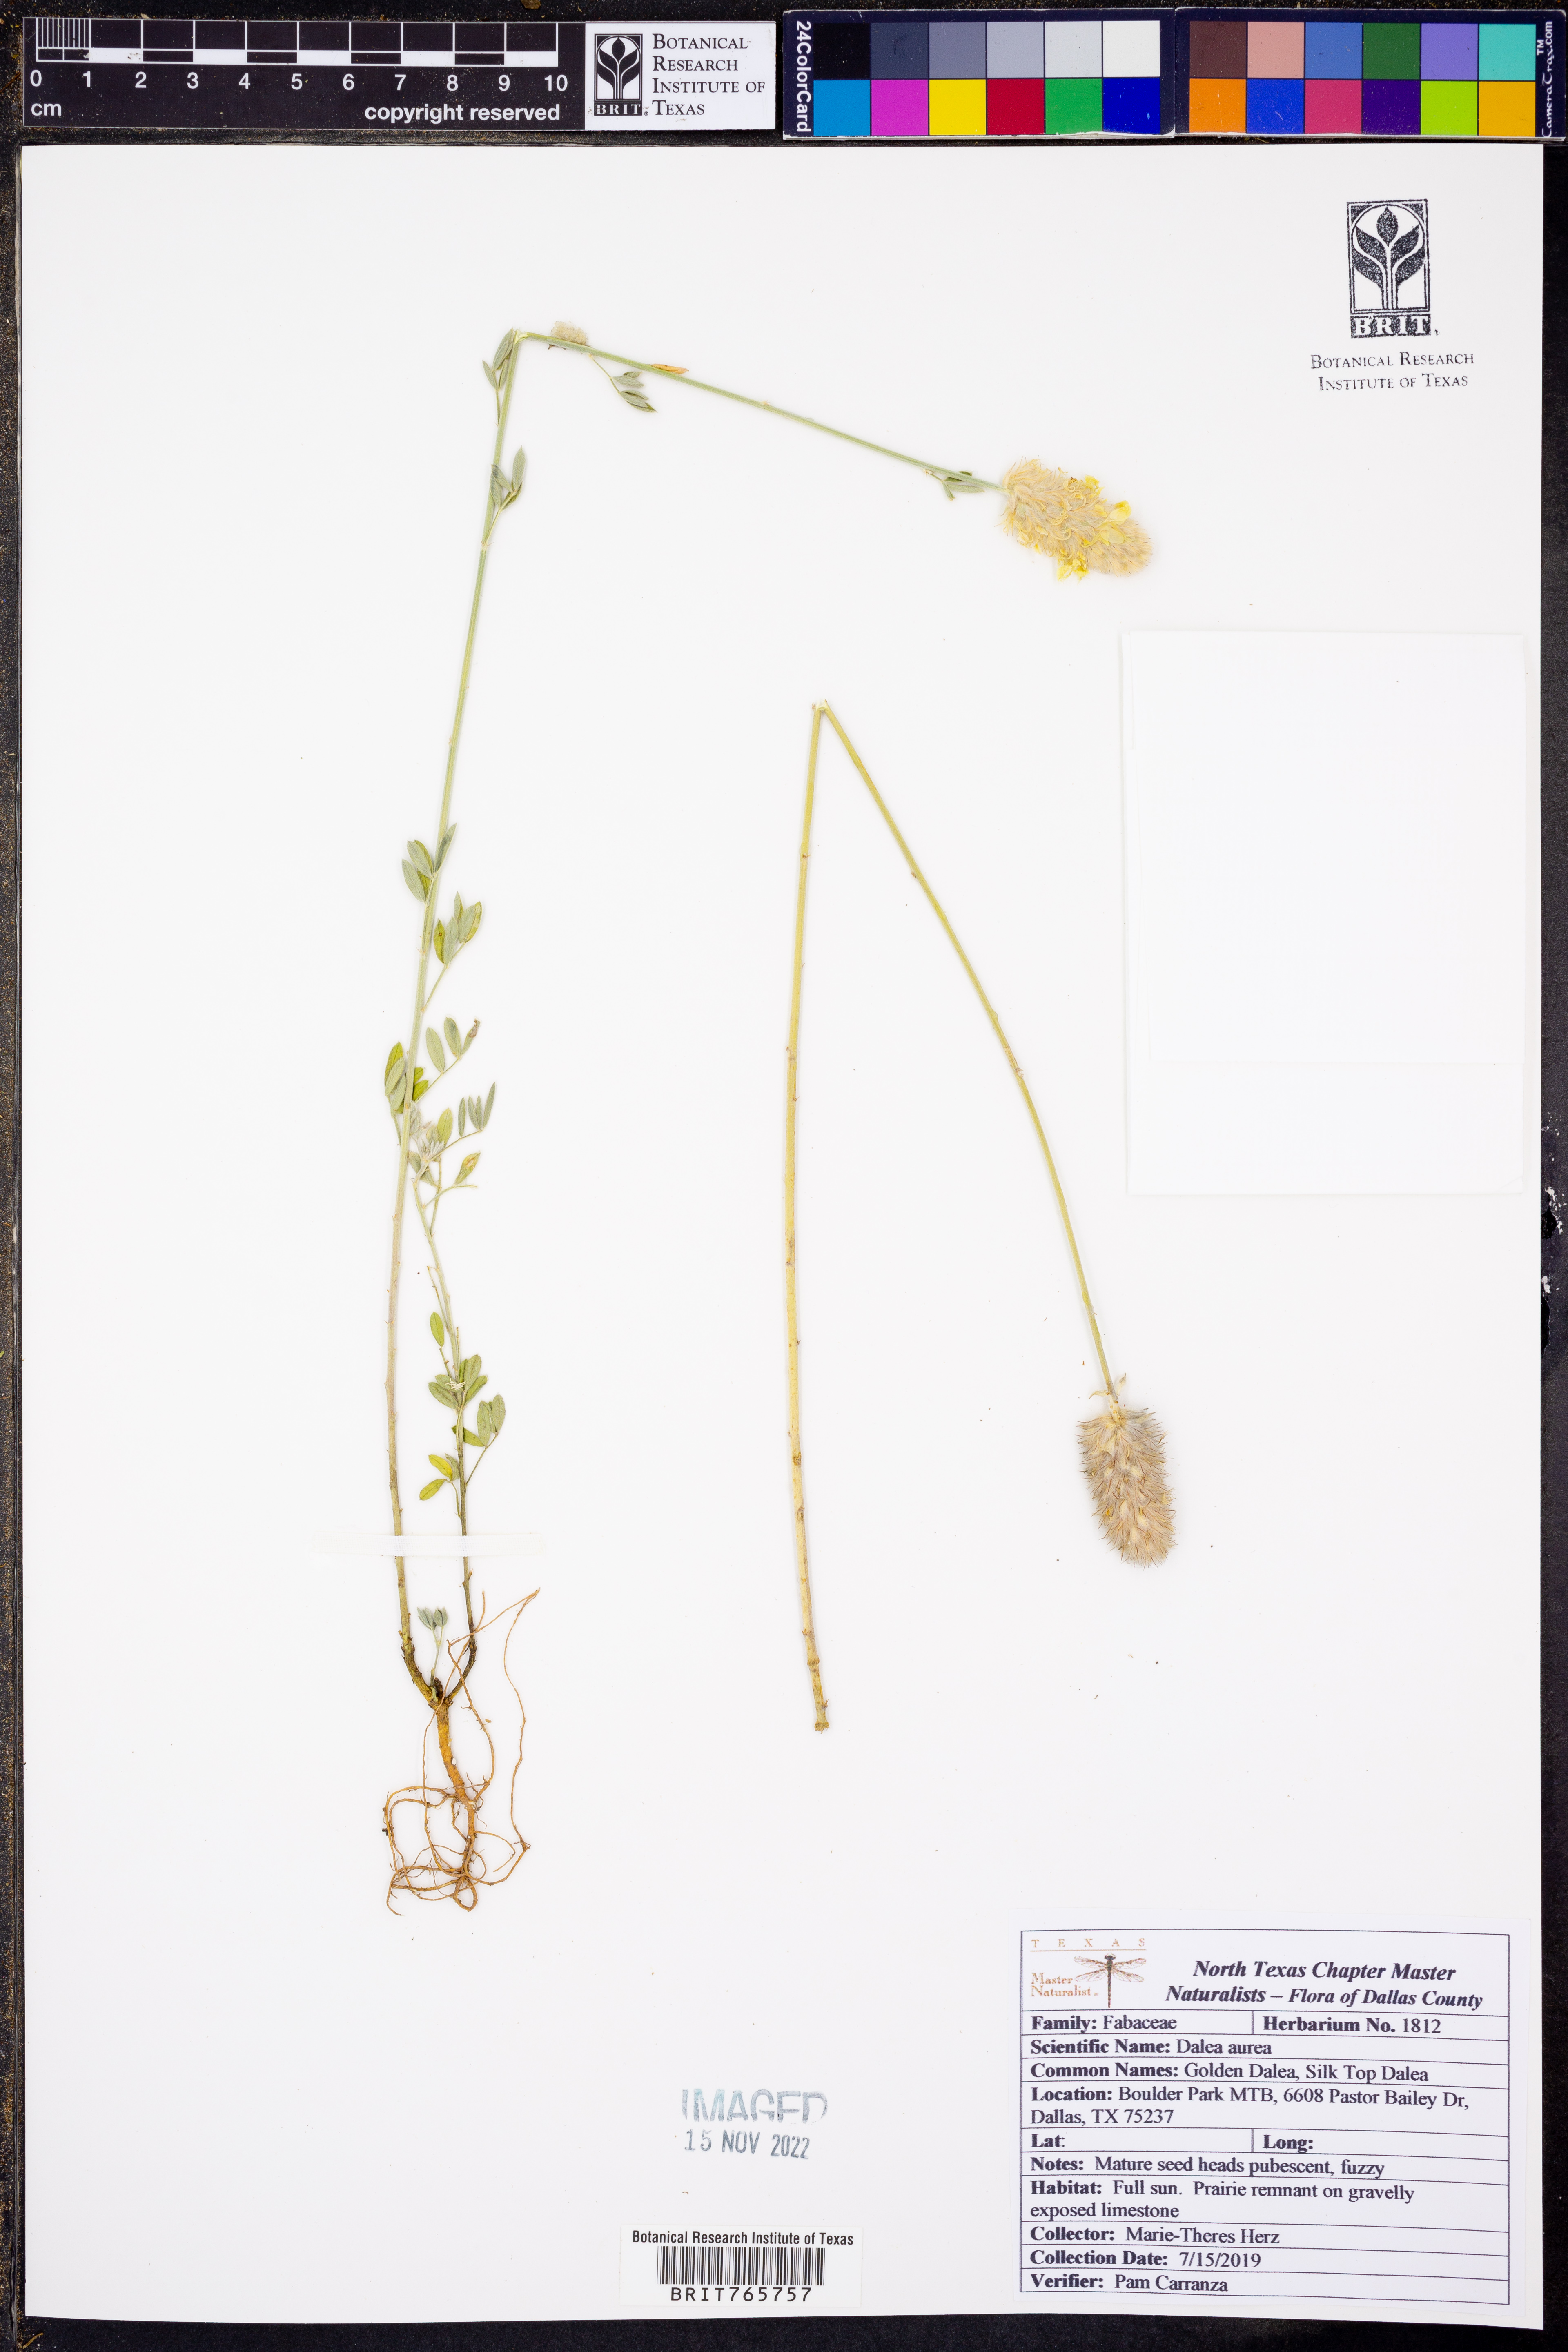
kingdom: Plantae
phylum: Tracheophyta
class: Magnoliopsida
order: Fabales
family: Fabaceae
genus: Dalea
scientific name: Dalea aurea
